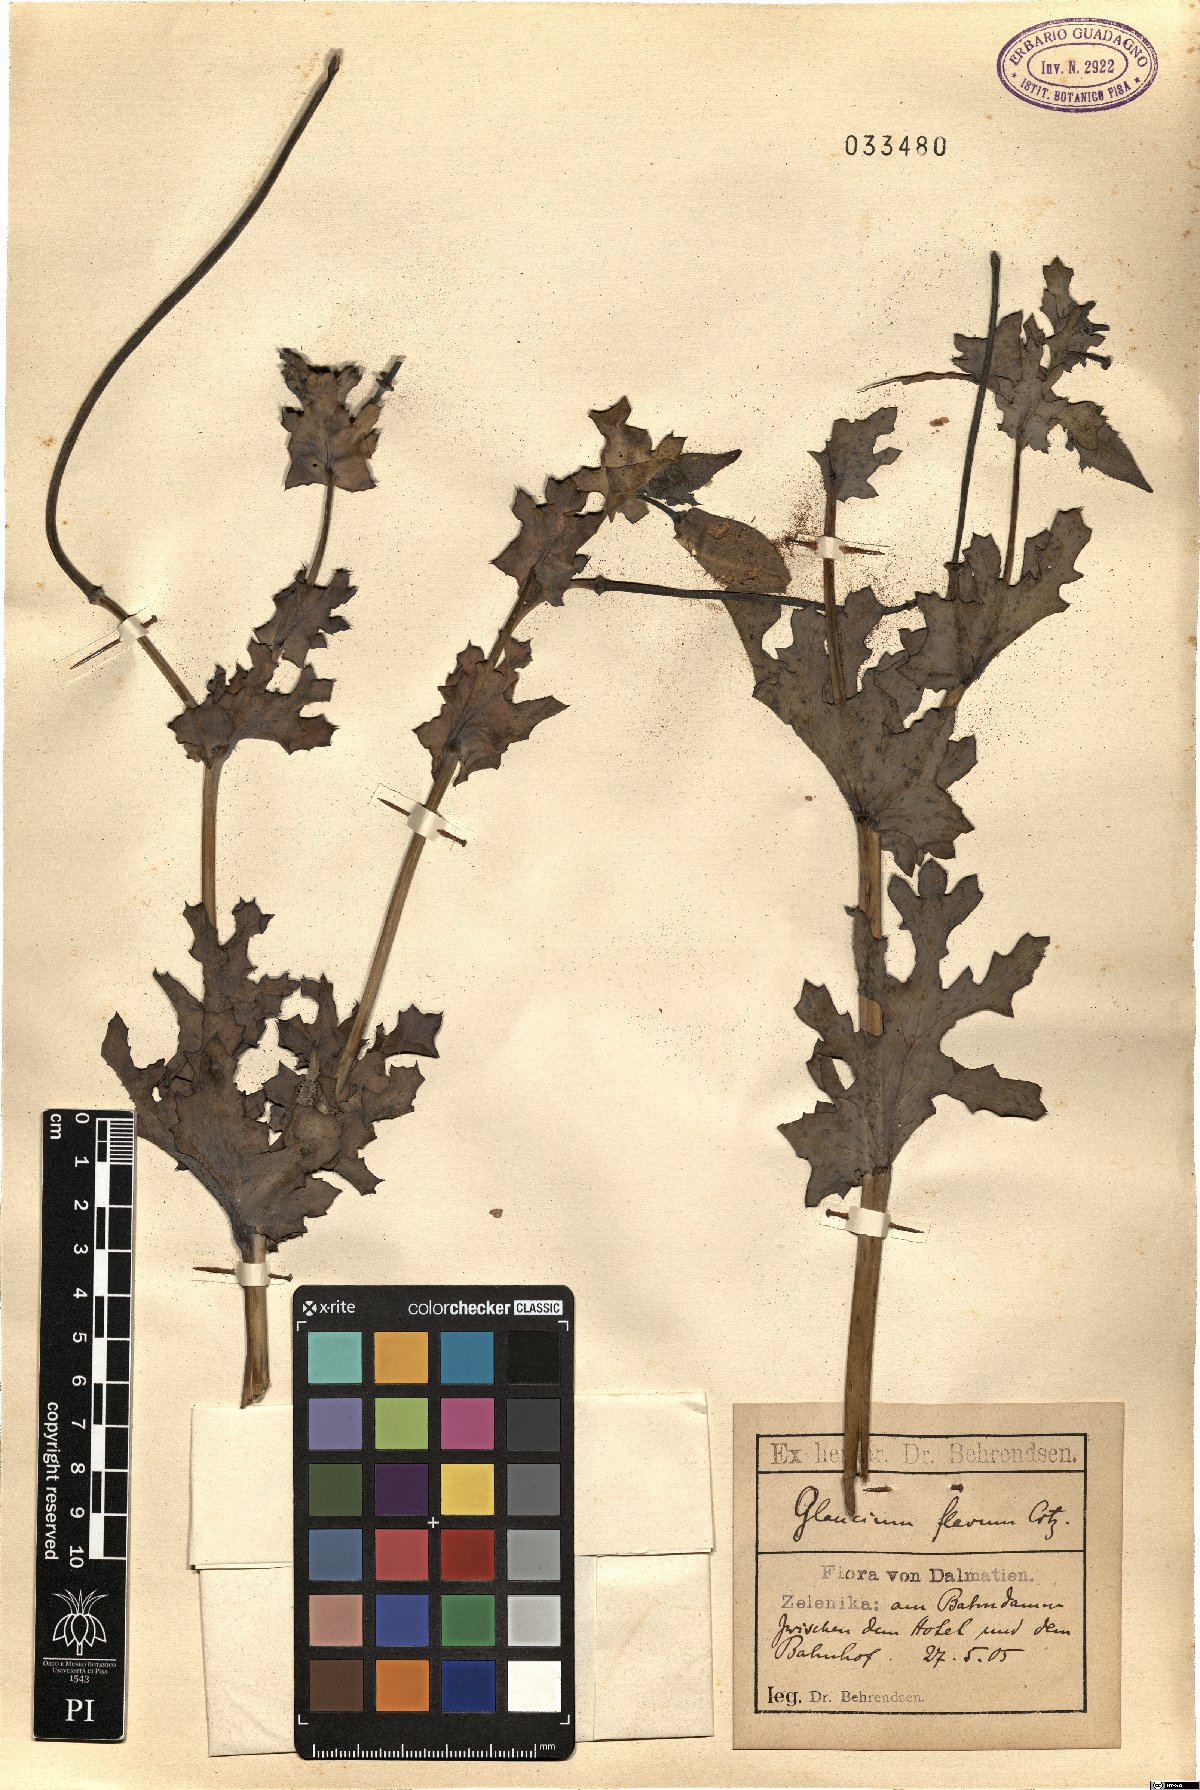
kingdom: Plantae
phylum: Tracheophyta
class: Magnoliopsida
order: Ranunculales
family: Papaveraceae
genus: Glaucium
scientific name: Glaucium flavum
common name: Yellow horned-poppy
